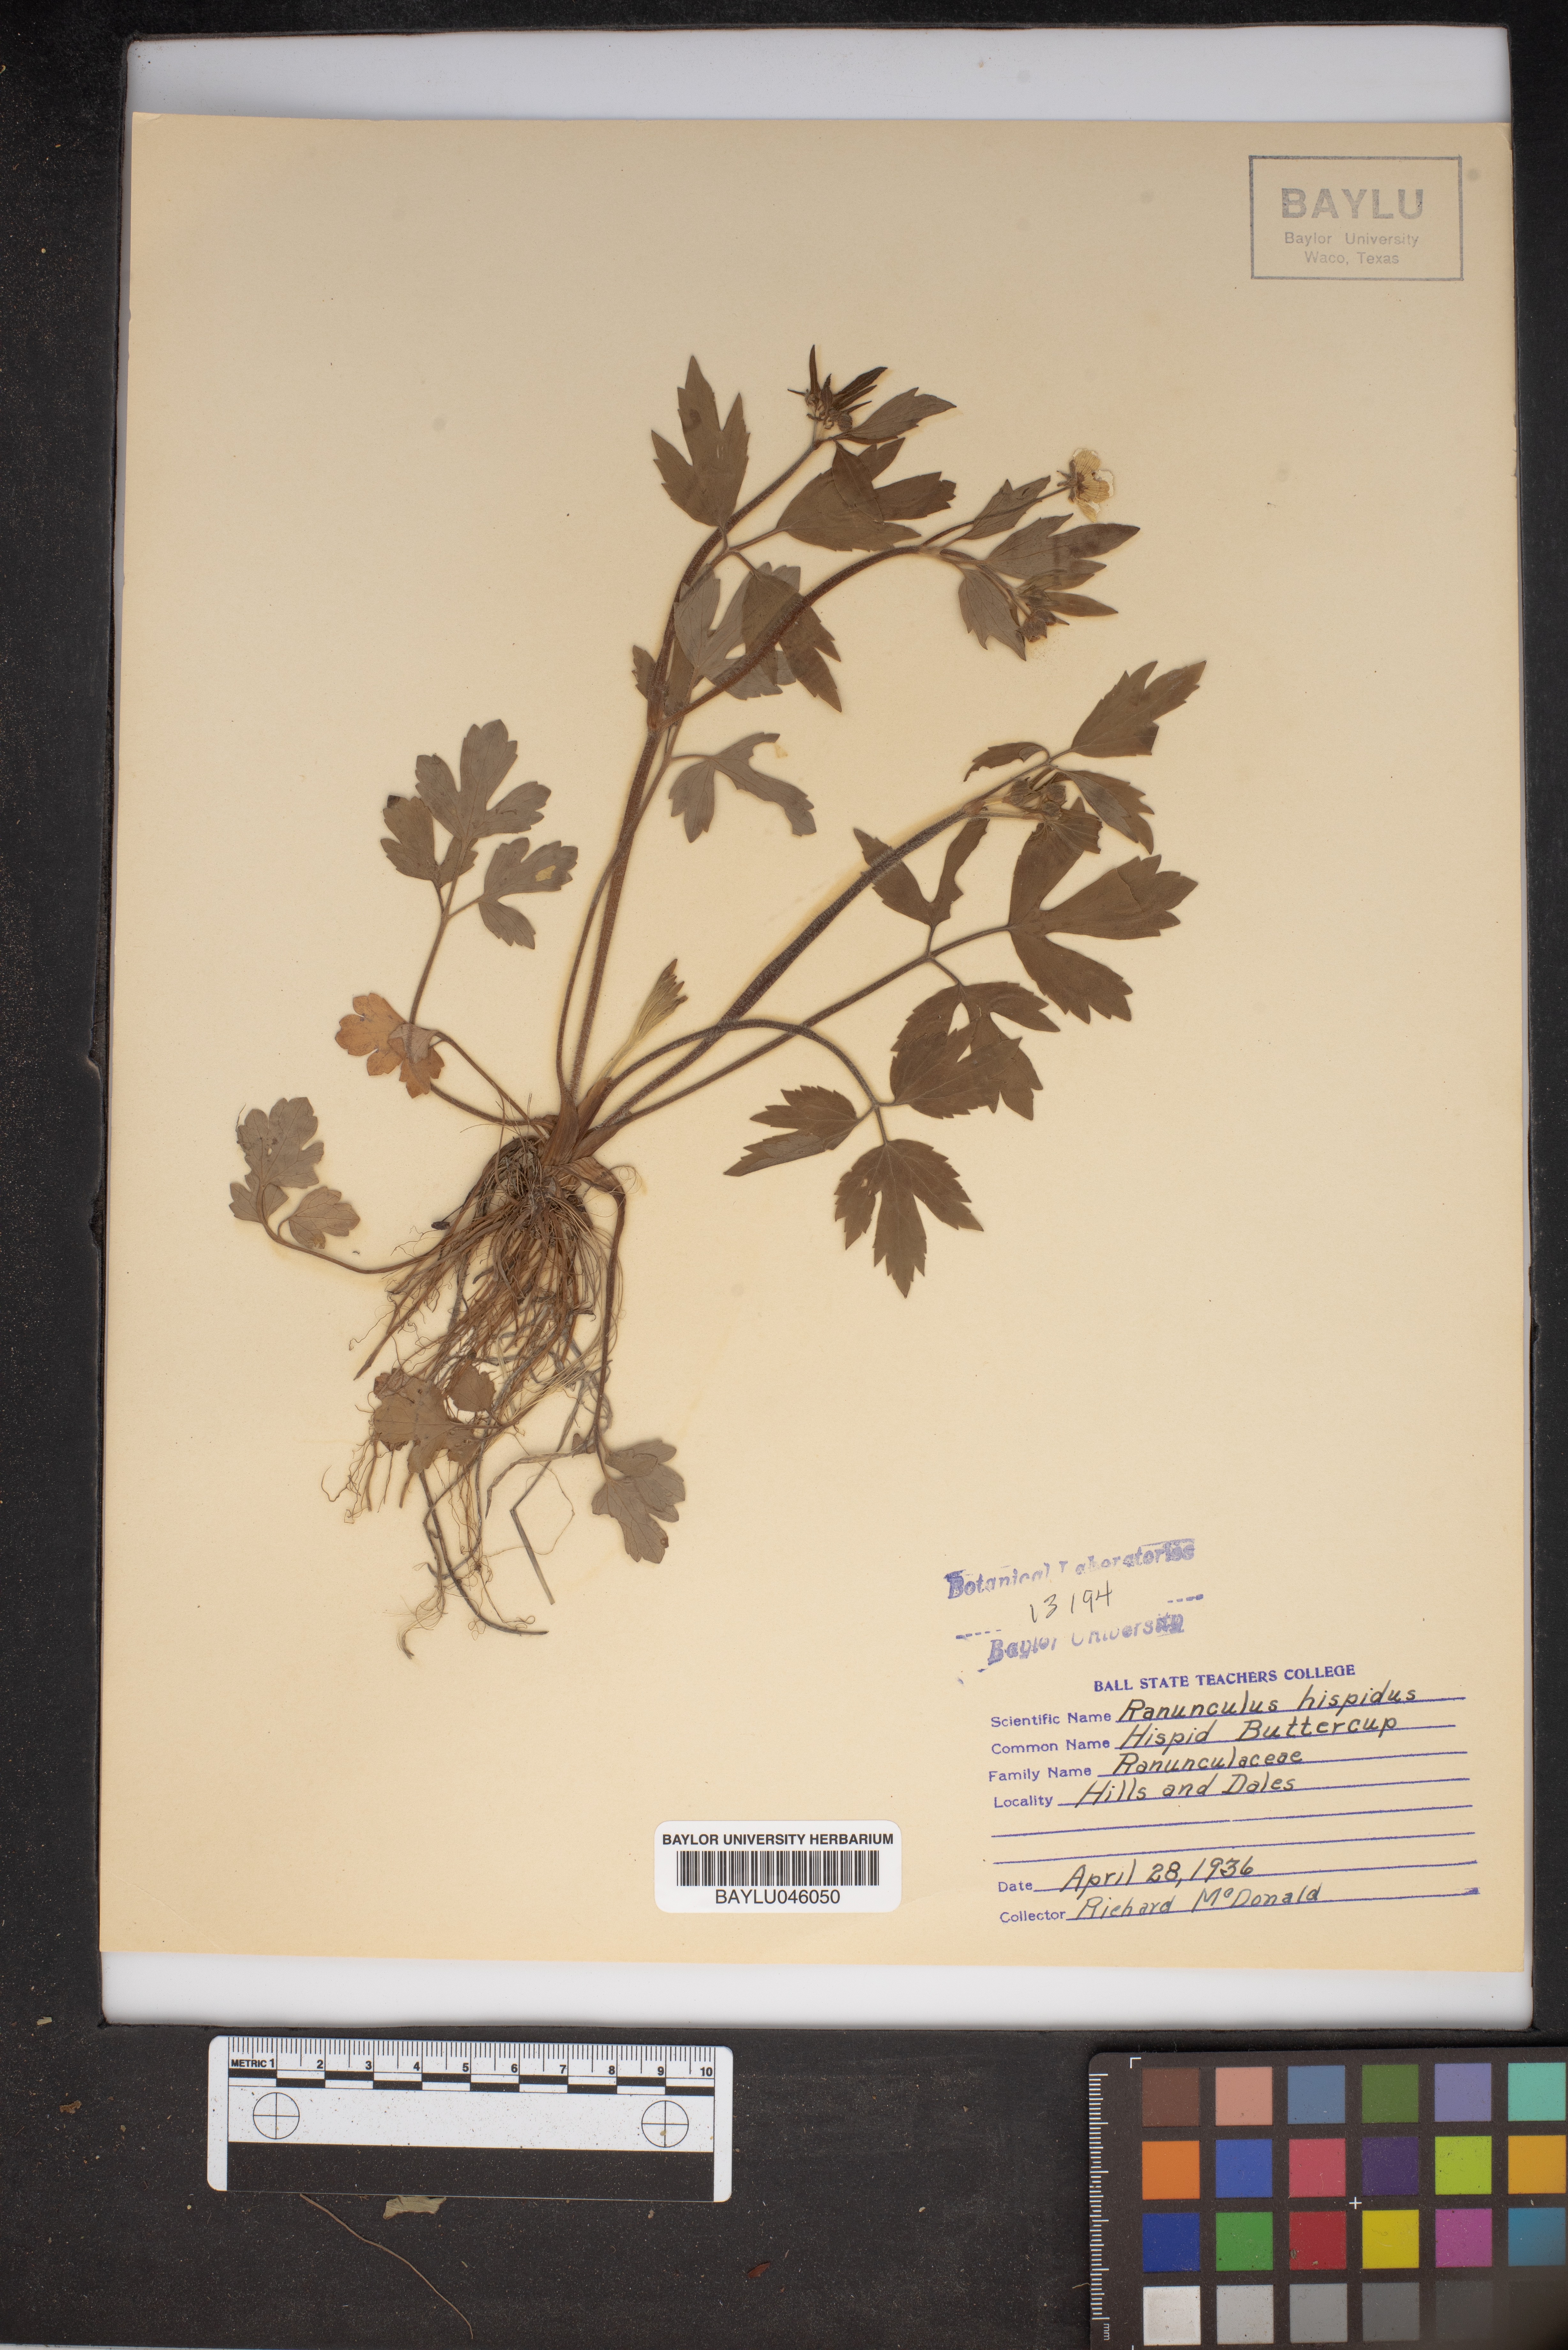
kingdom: Plantae
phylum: Tracheophyta
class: Magnoliopsida
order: Ranunculales
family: Ranunculaceae
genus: Ranunculus
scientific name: Ranunculus hispidus
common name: Bristly buttercup
